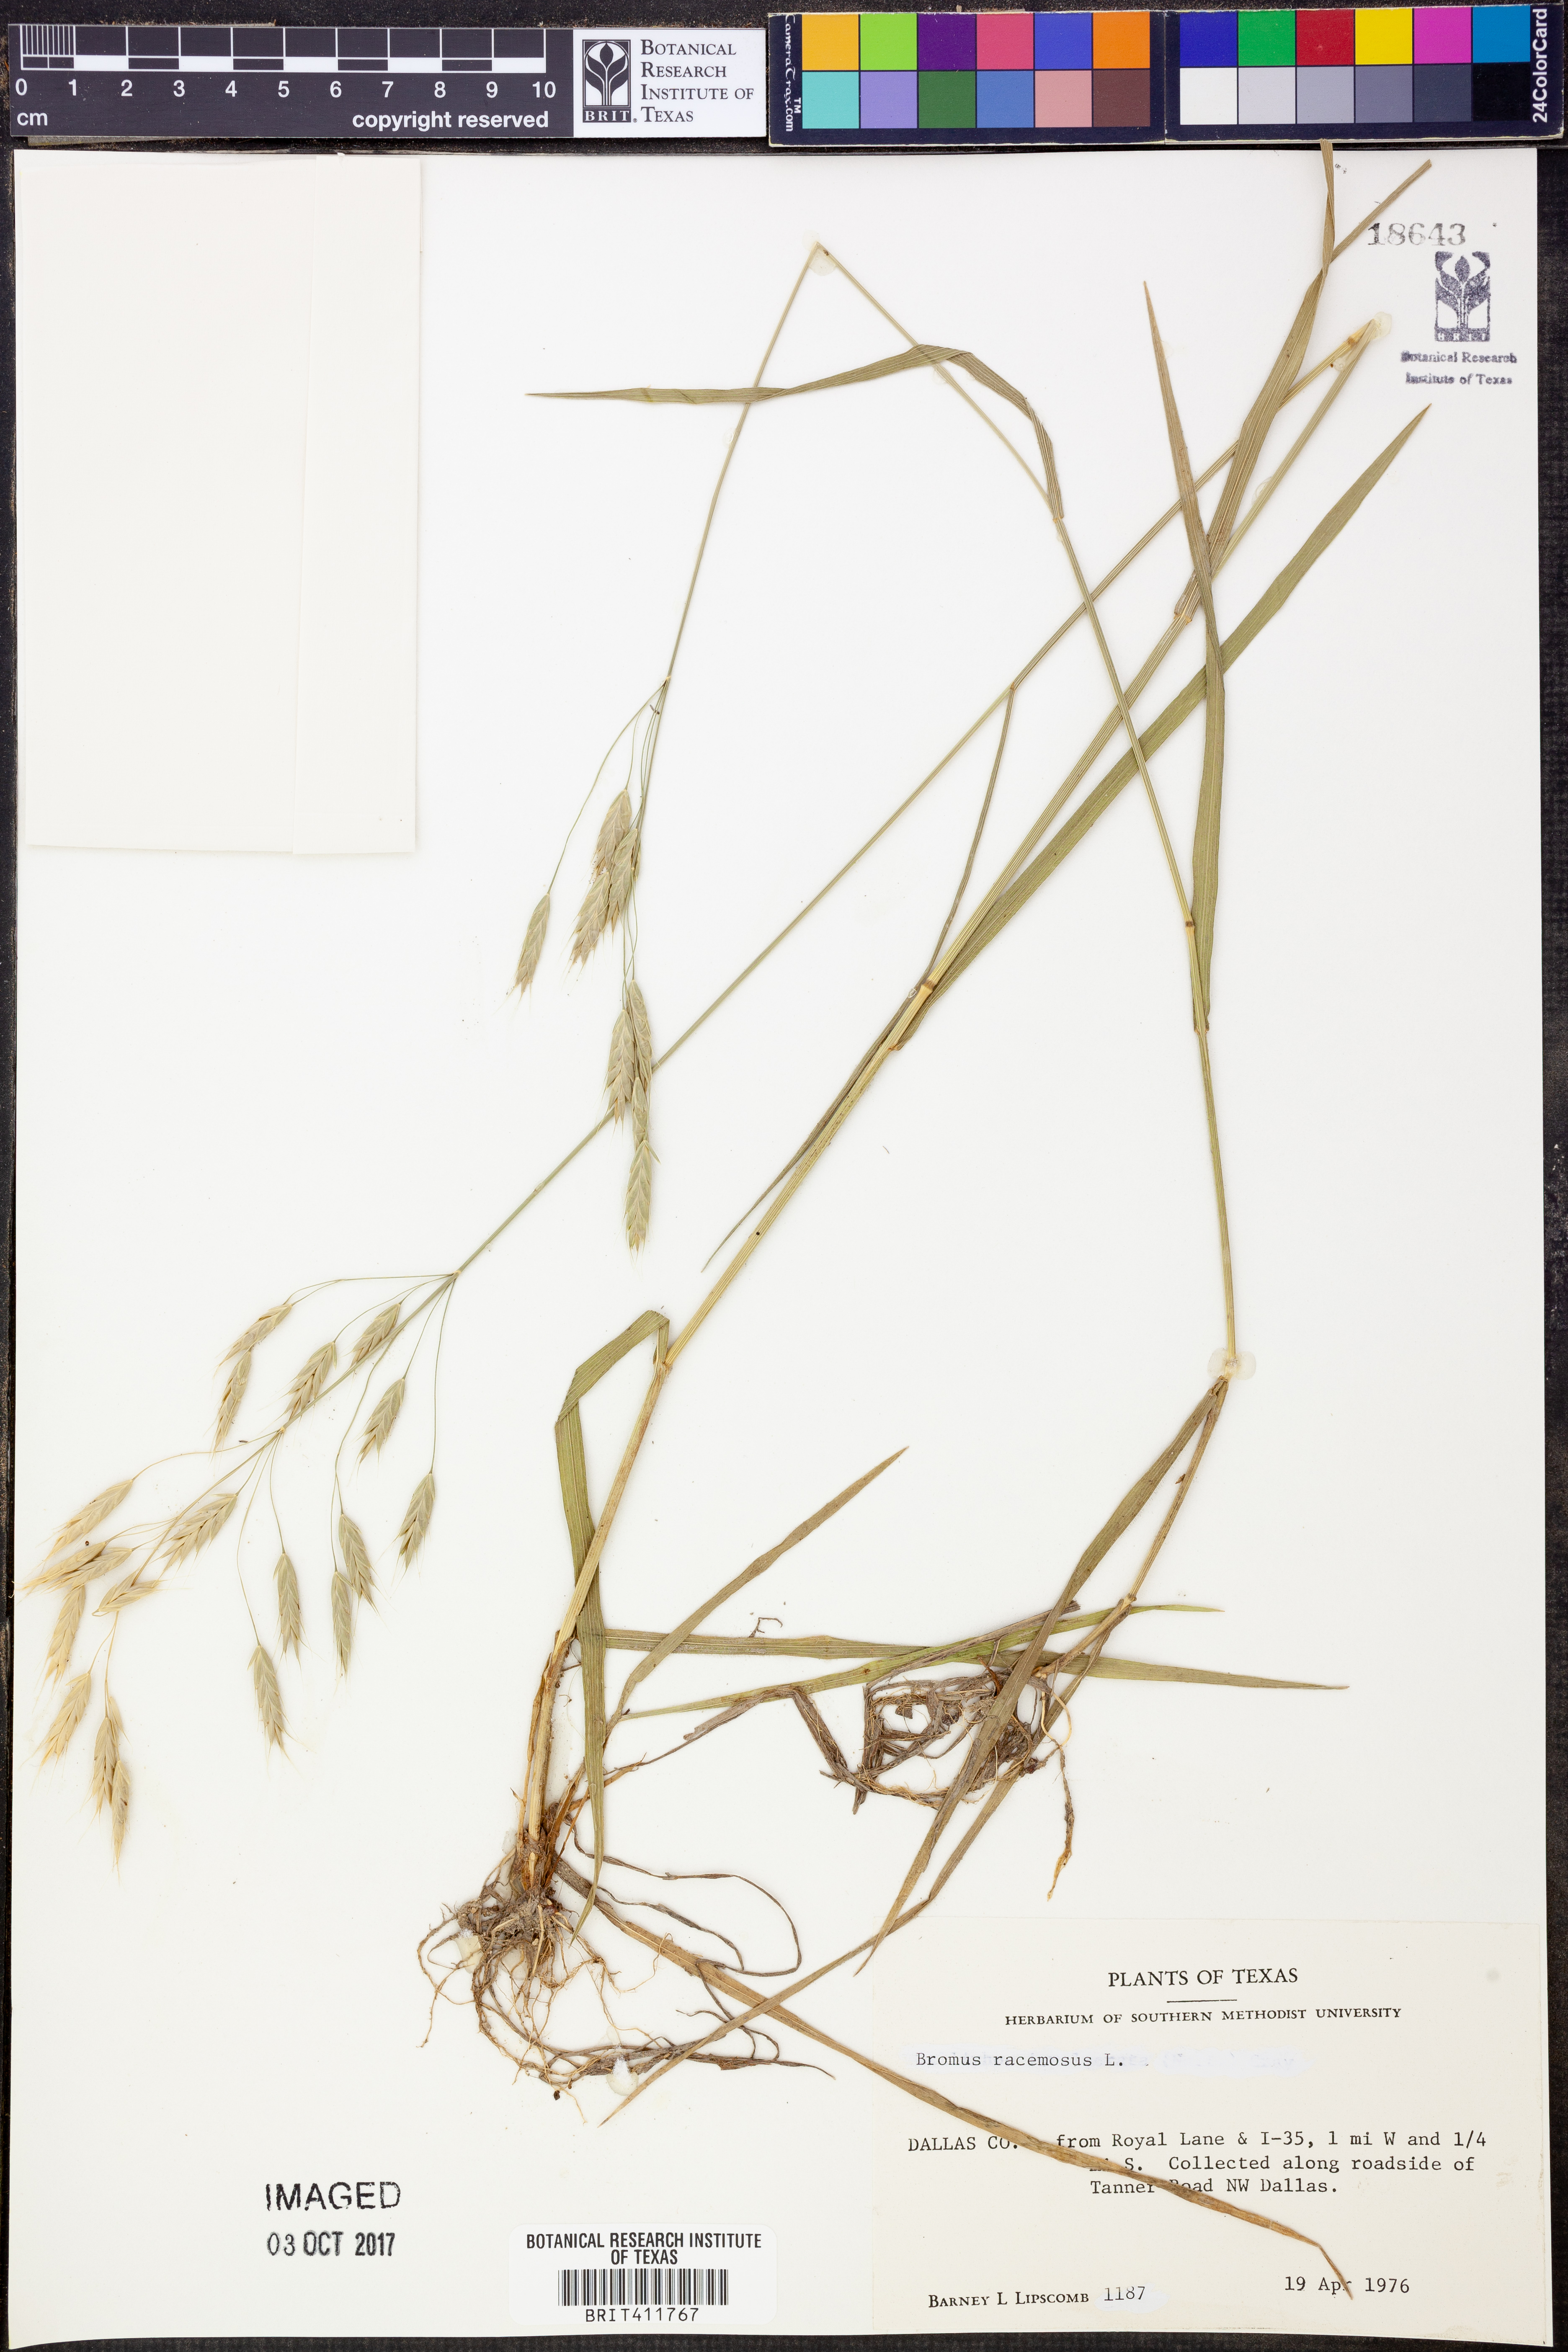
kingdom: Plantae
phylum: Tracheophyta
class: Liliopsida
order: Poales
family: Poaceae
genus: Bromus
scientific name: Bromus racemosus
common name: Bald brome
